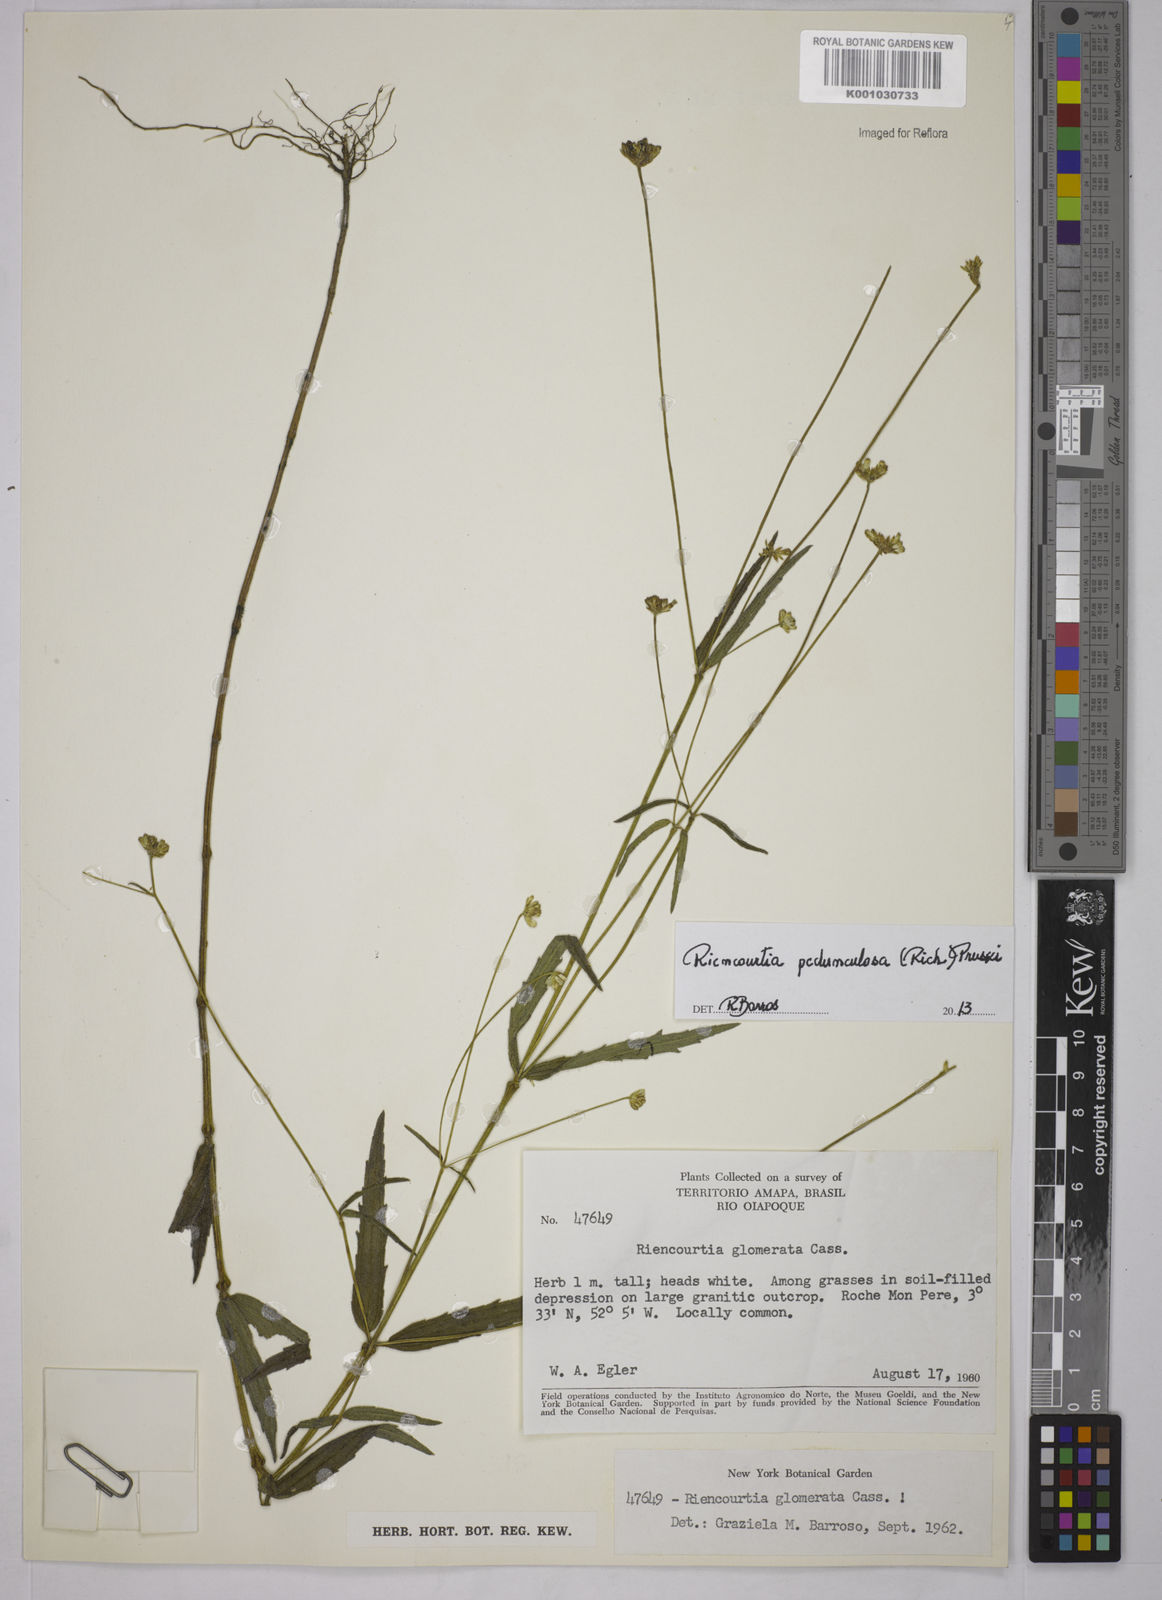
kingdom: Plantae
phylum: Tracheophyta
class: Magnoliopsida
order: Asterales
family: Asteraceae
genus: Riencourtia
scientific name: Riencourtia pedunculosa
